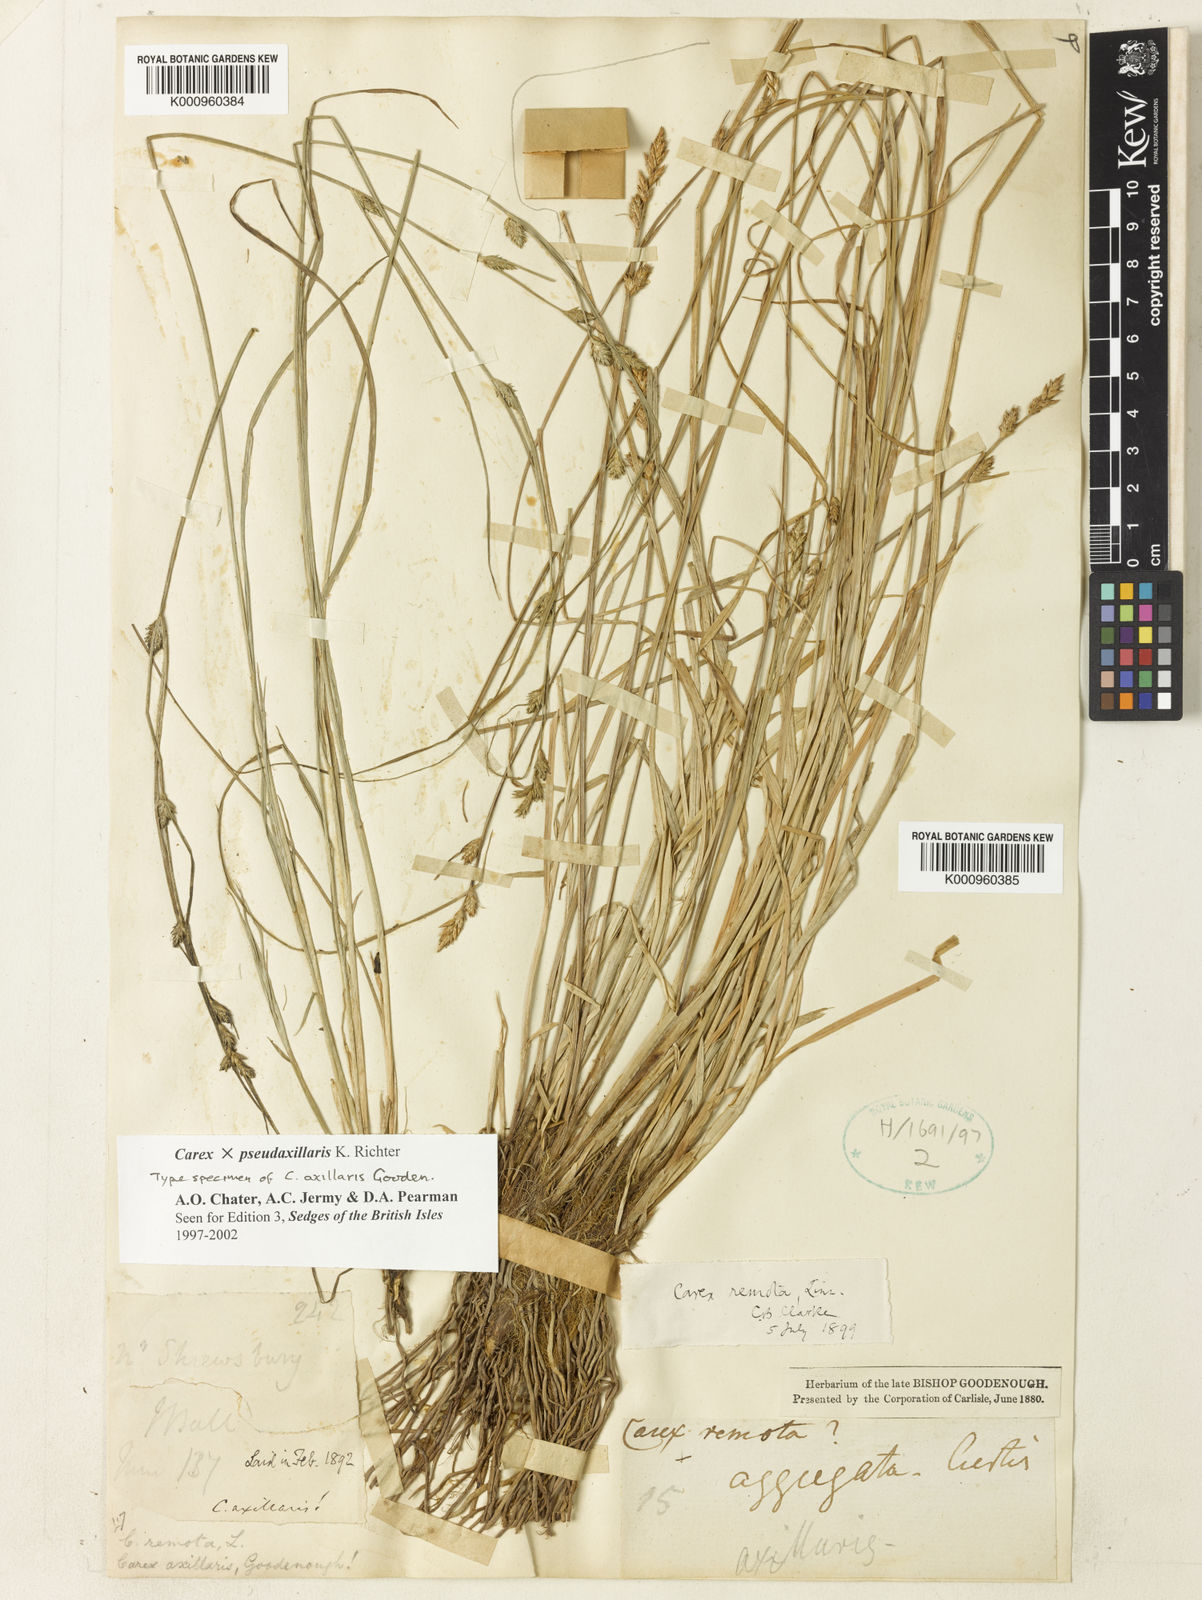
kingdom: Plantae
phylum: Tracheophyta
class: Liliopsida
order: Poales
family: Cyperaceae
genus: Carex
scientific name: Carex pseudoaxillaris
